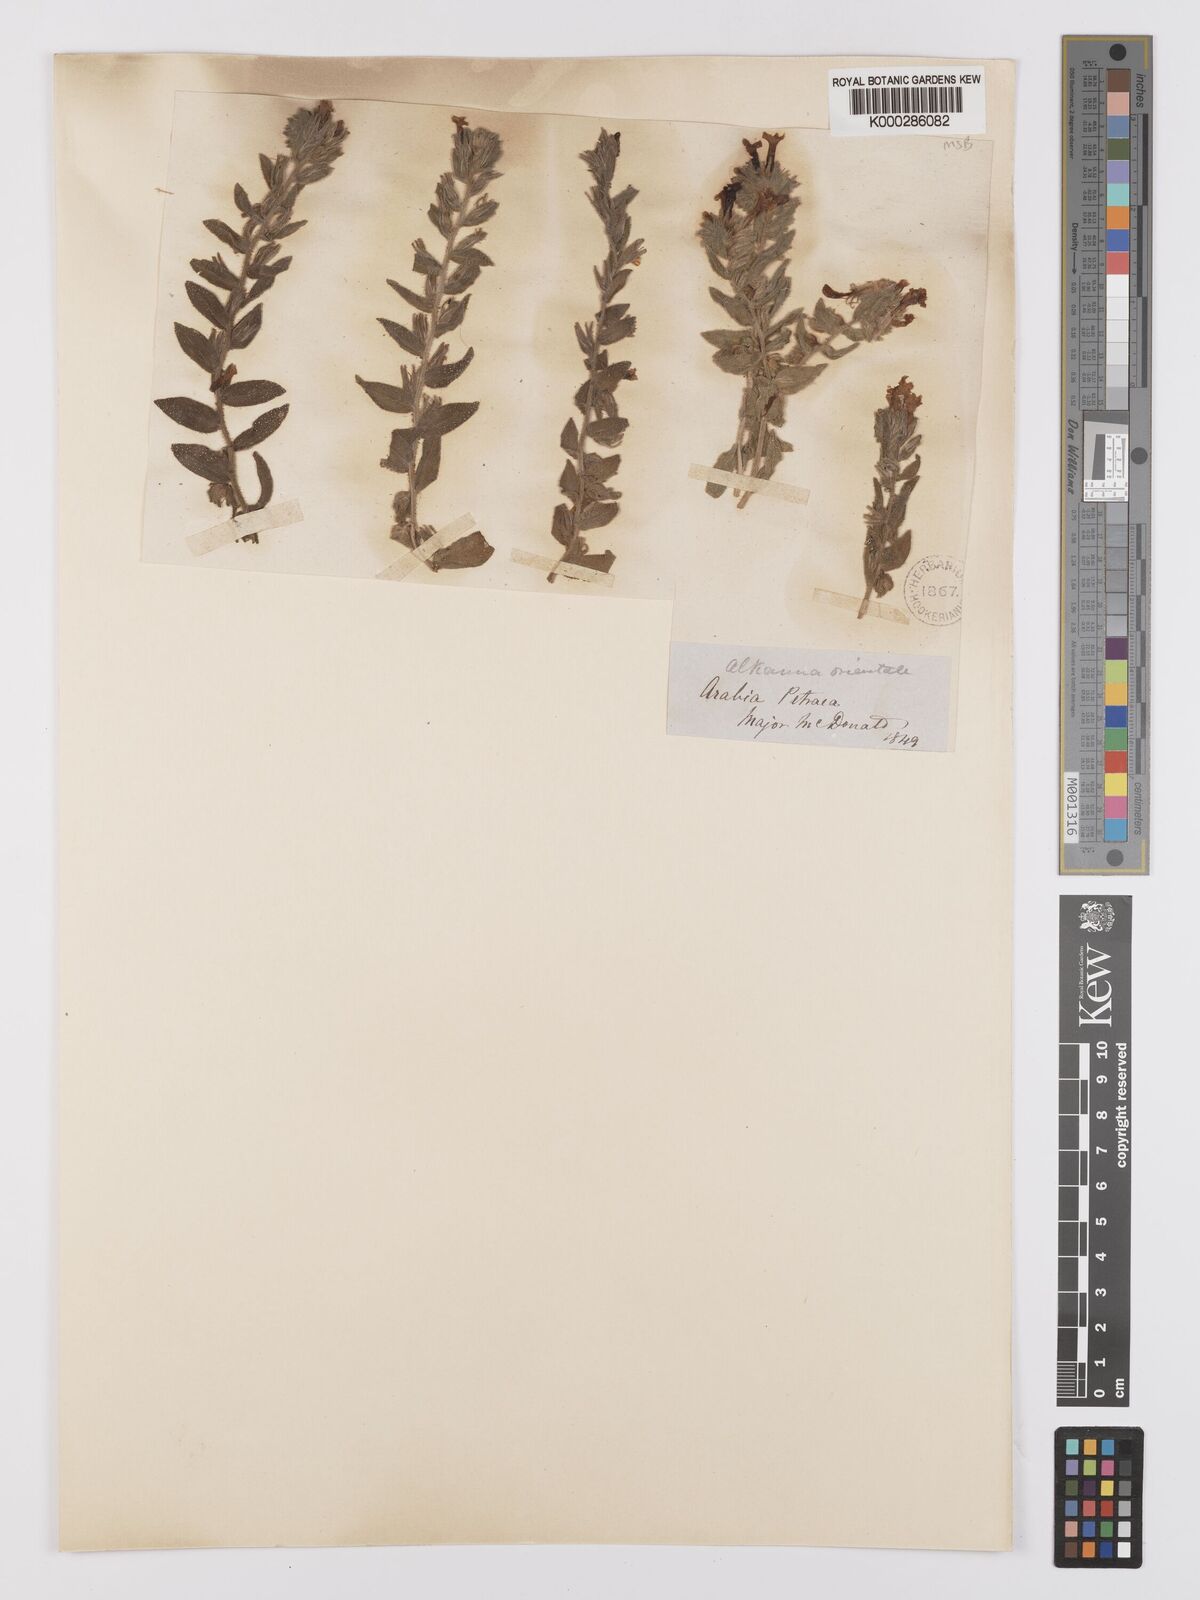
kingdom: Plantae
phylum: Tracheophyta
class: Magnoliopsida
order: Boraginales
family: Boraginaceae
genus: Alkanna
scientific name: Alkanna orientalis
